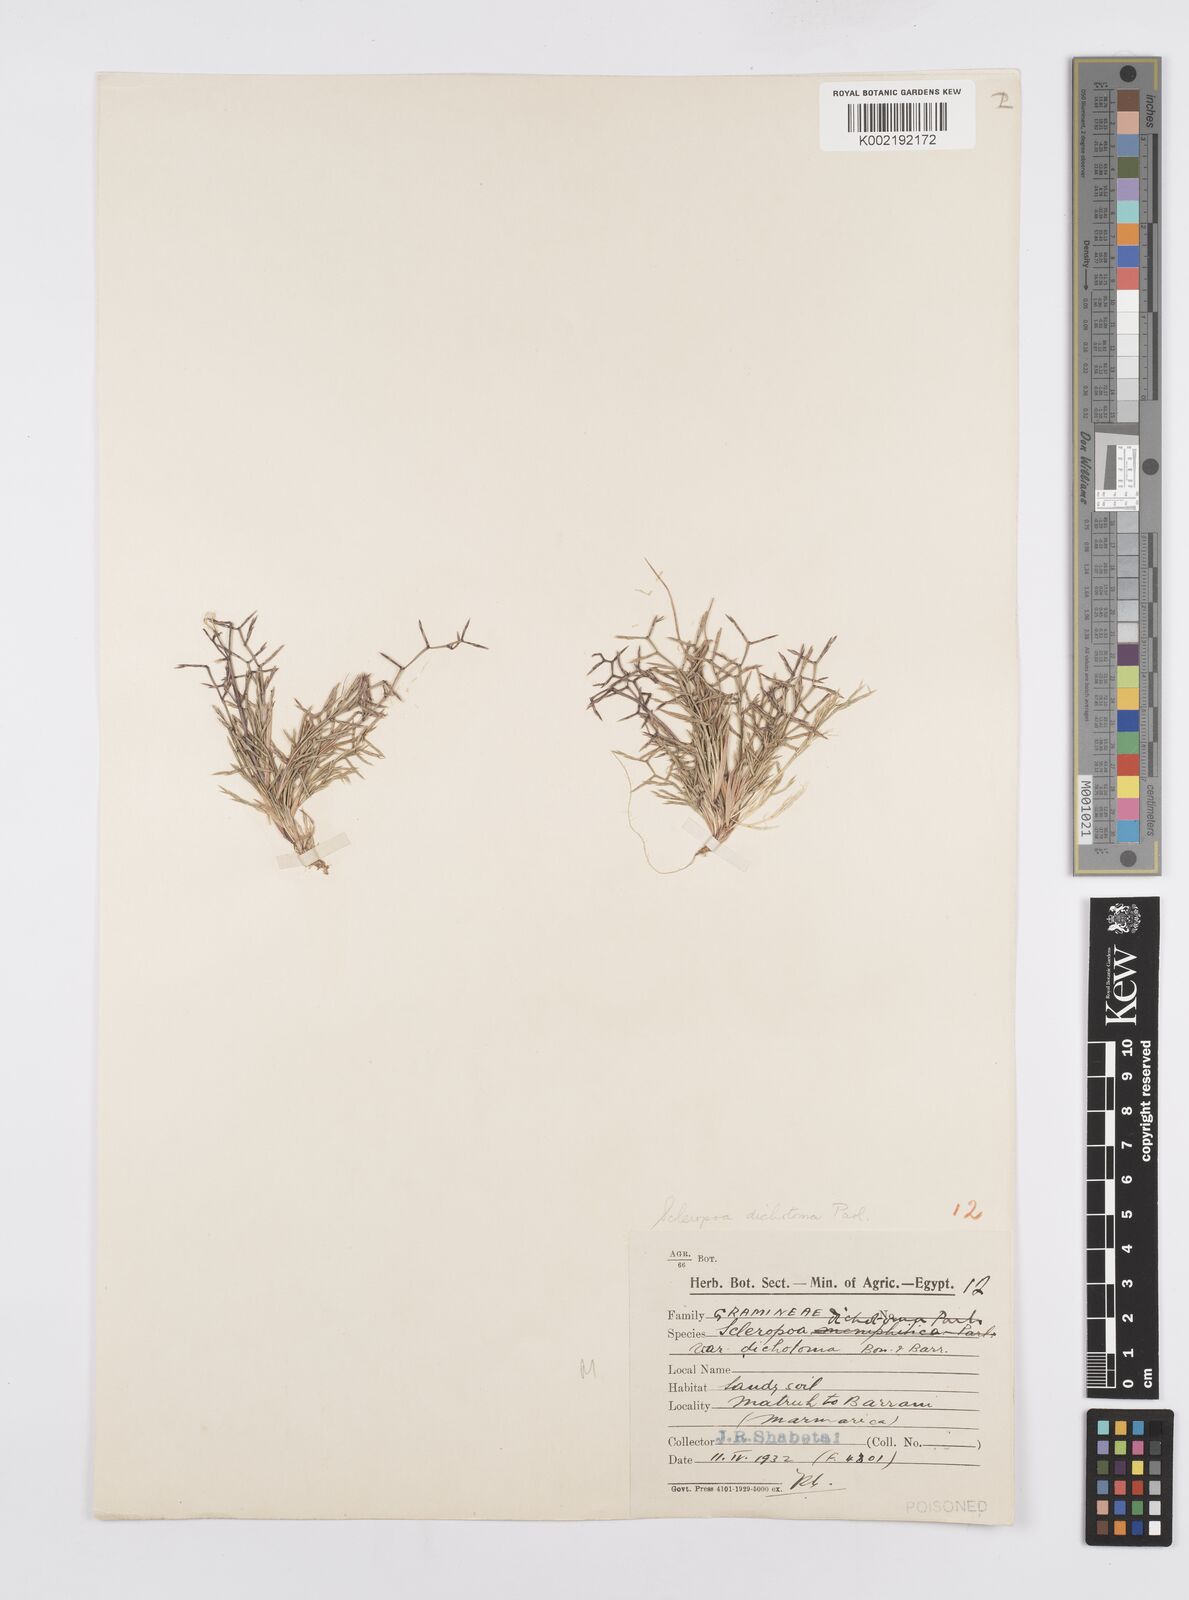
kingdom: Plantae
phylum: Tracheophyta
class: Liliopsida
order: Poales
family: Poaceae
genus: Cutandia
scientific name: Cutandia dichotoma
